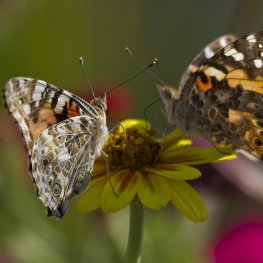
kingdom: Animalia
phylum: Arthropoda
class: Insecta
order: Lepidoptera
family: Nymphalidae
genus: Vanessa
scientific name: Vanessa cardui
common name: Painted Lady
